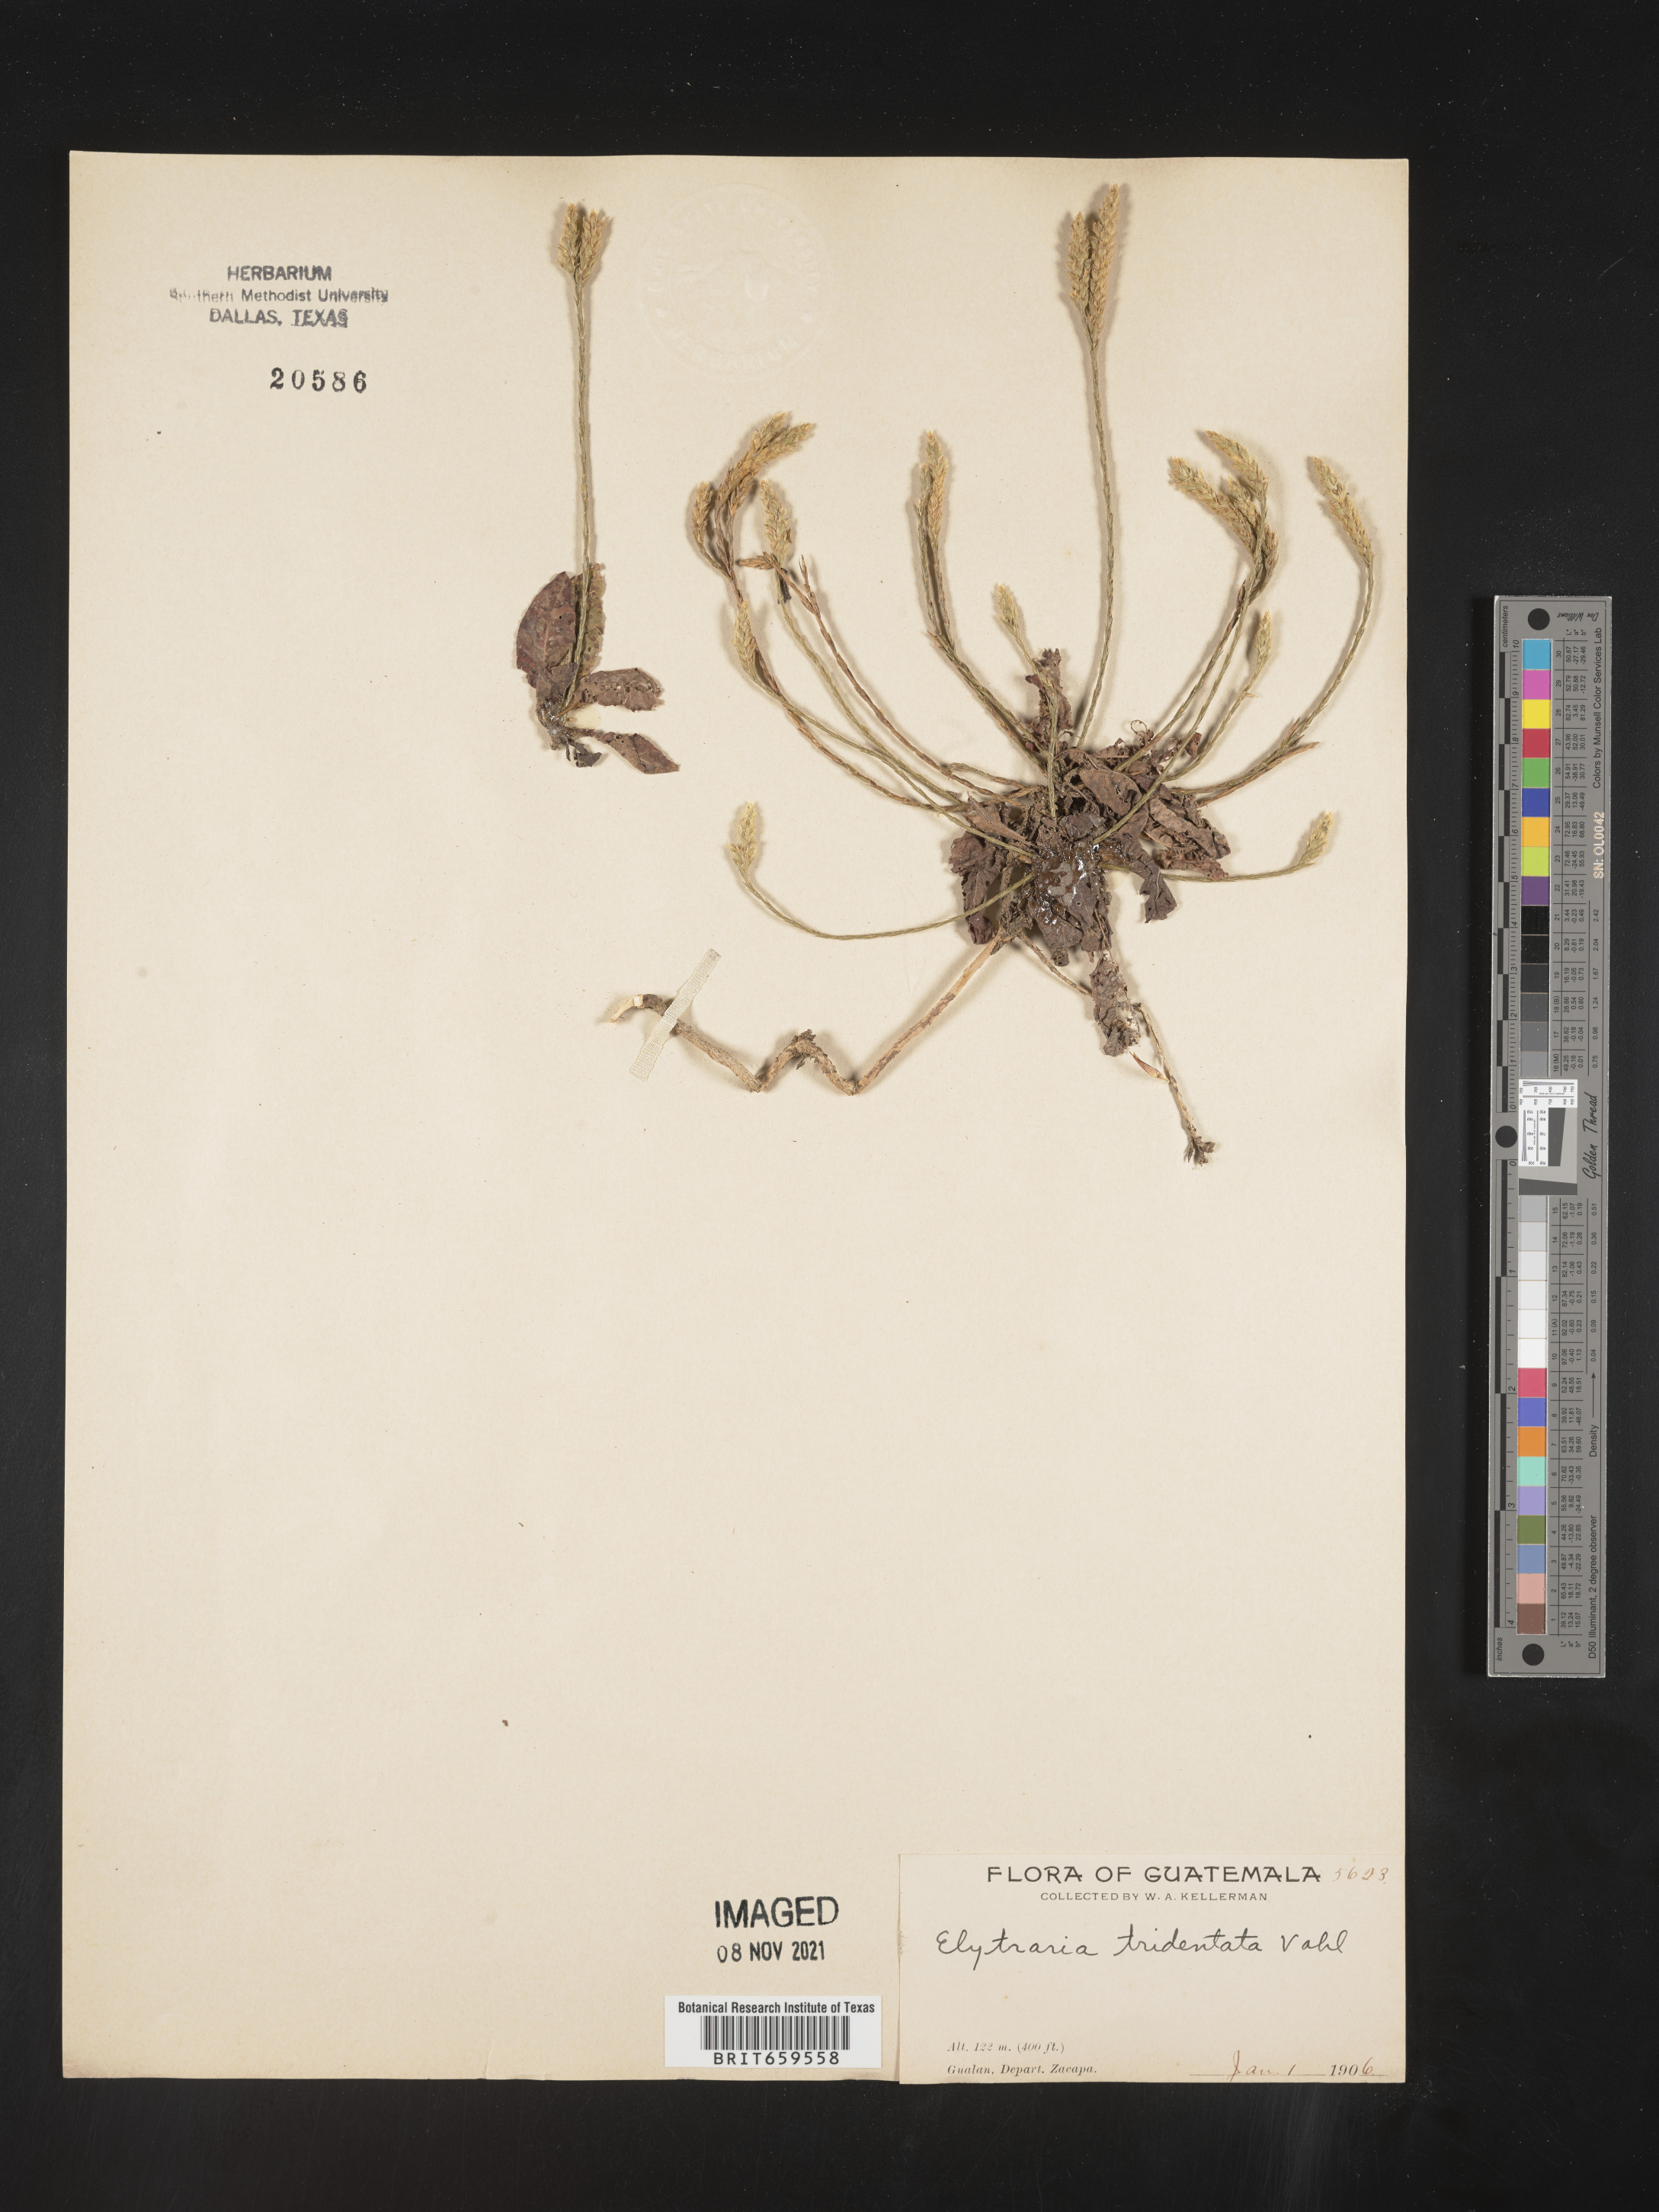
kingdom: Plantae
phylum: Tracheophyta
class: Magnoliopsida
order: Lamiales
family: Acanthaceae
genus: Elytraria
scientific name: Elytraria
